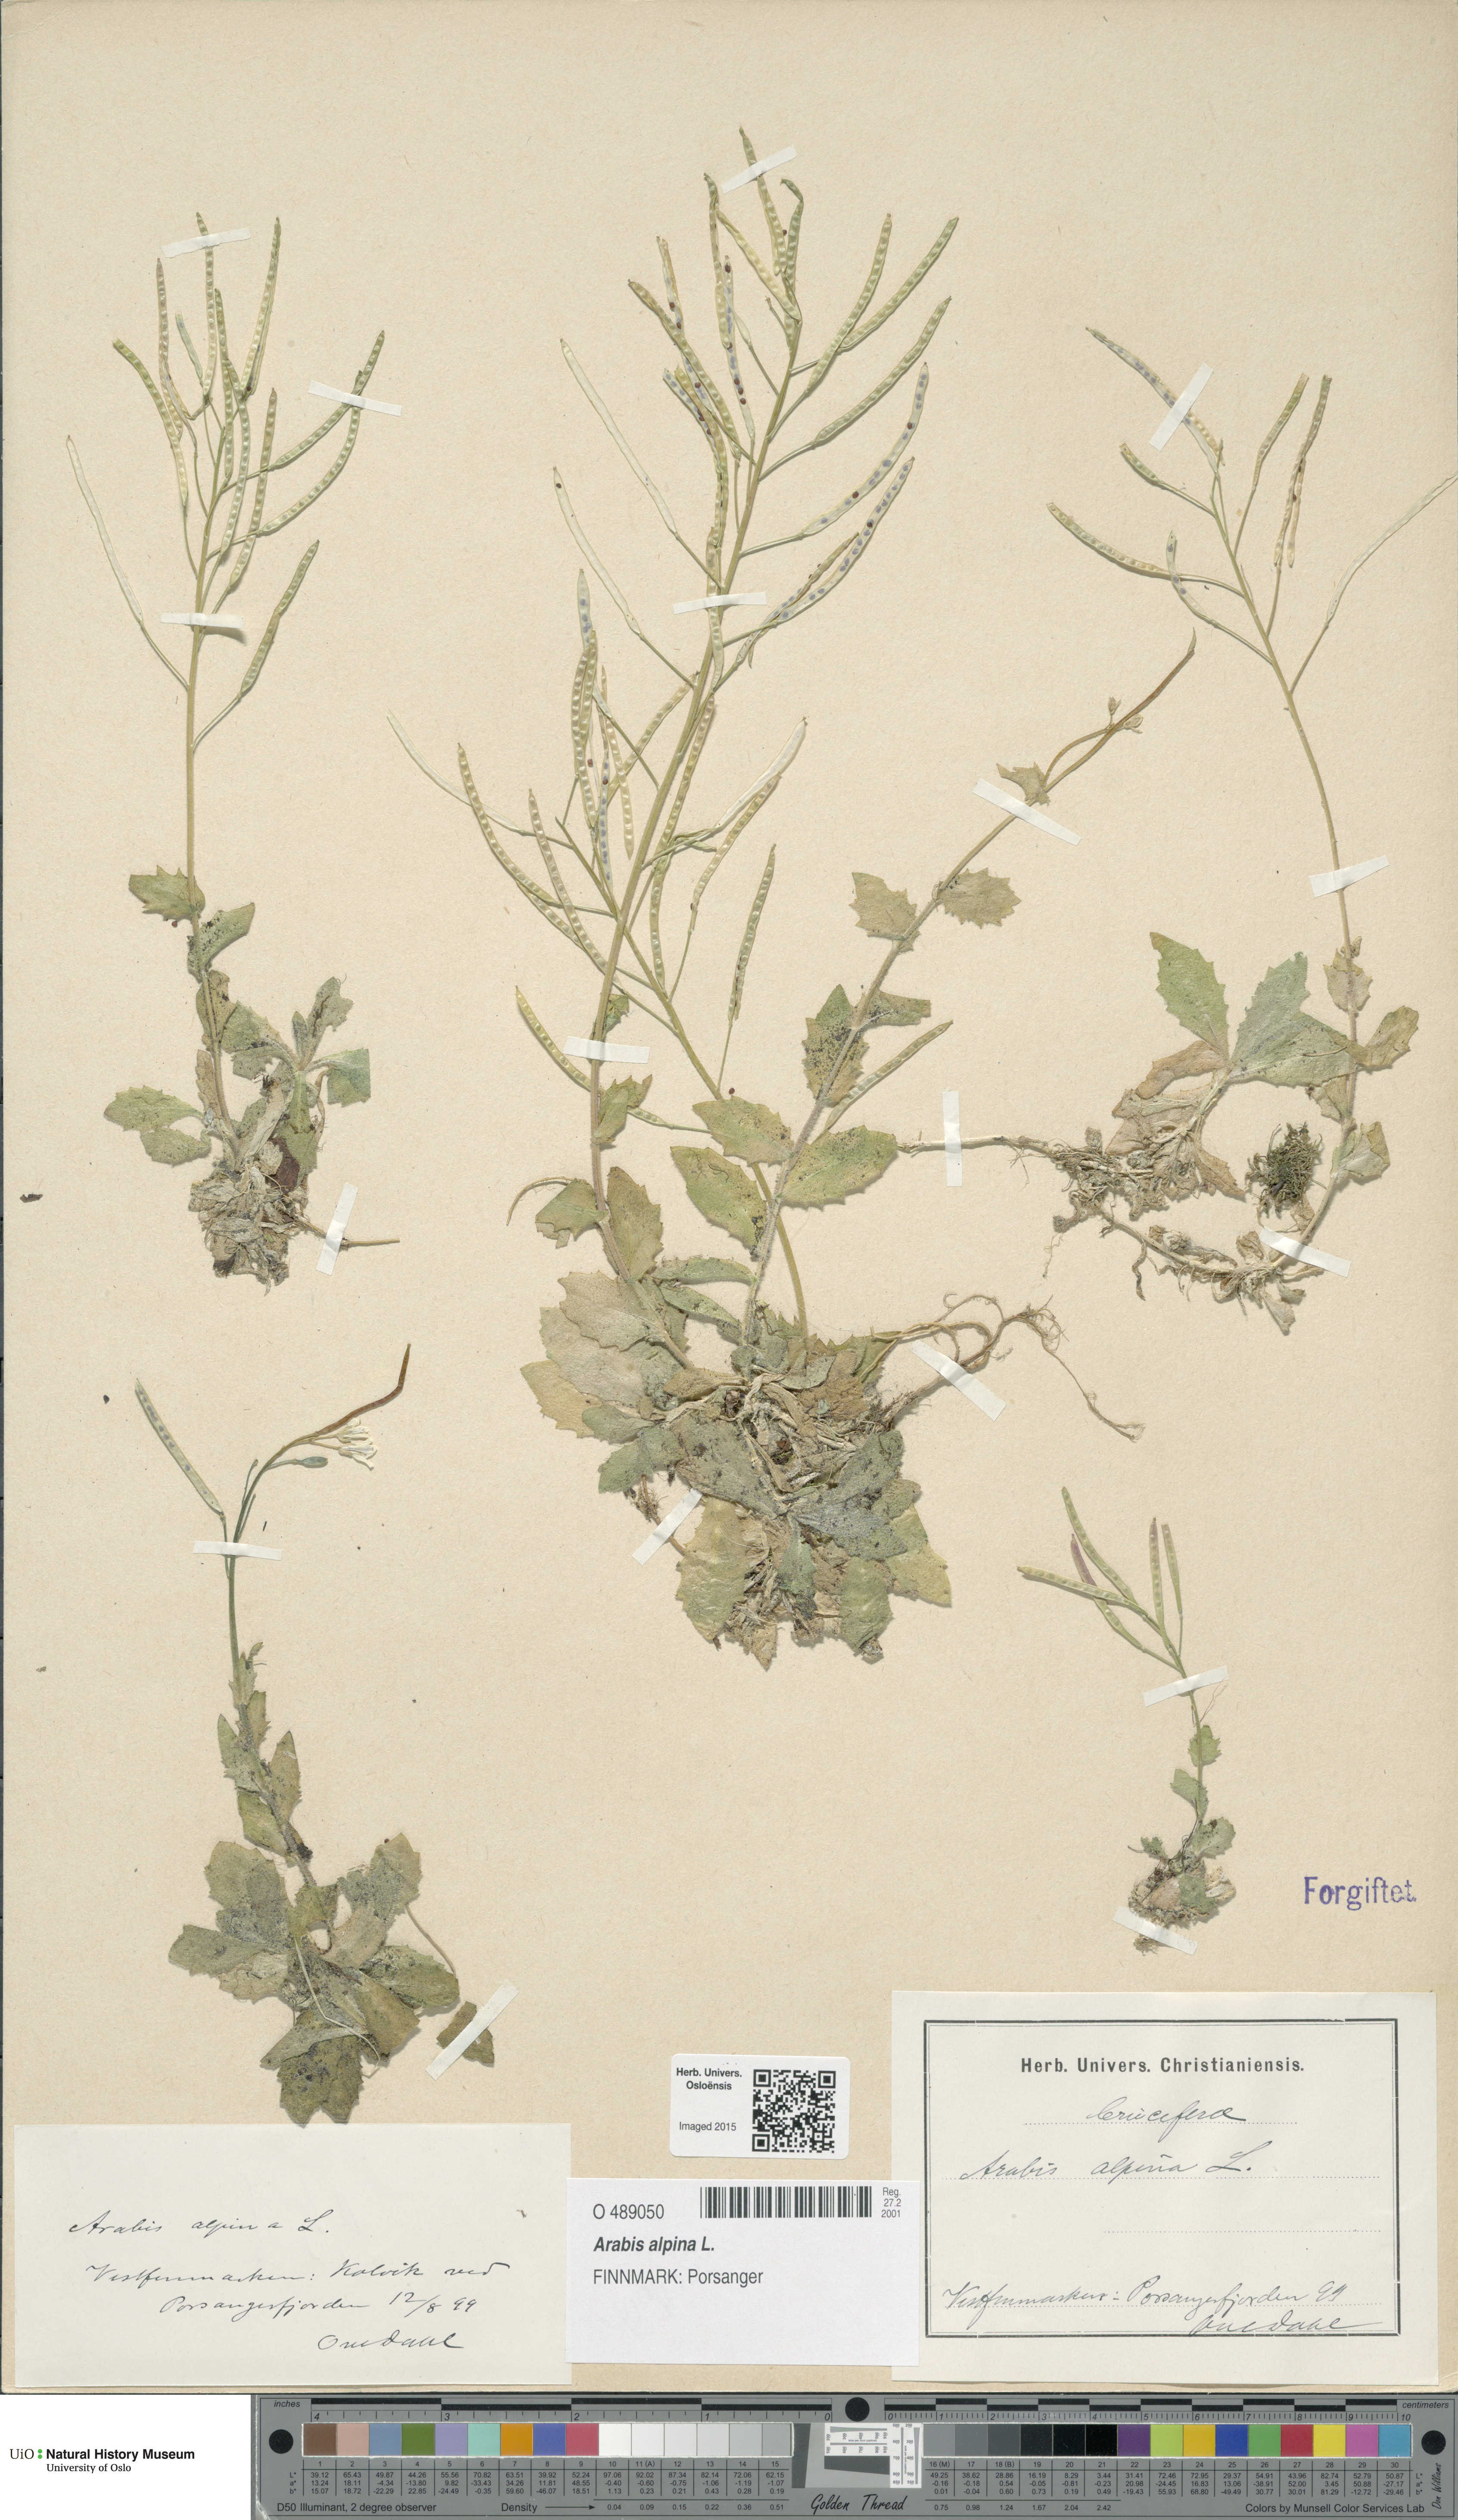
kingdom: Plantae
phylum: Tracheophyta
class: Magnoliopsida
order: Brassicales
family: Brassicaceae
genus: Arabis
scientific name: Arabis alpina
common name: Alpine rock-cress
